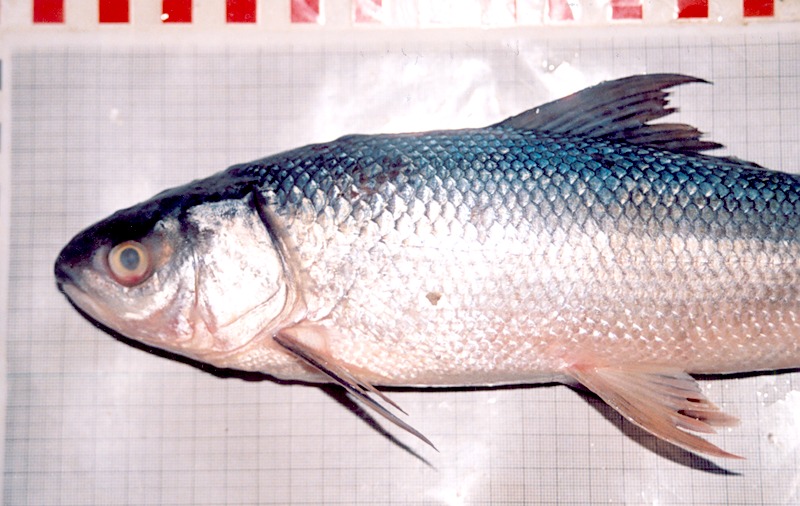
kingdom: Animalia
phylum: Chordata
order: Cypriniformes
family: Cyprinidae
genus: Cirrhinus
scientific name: Cirrhinus microlepis
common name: Small scale mud carp
